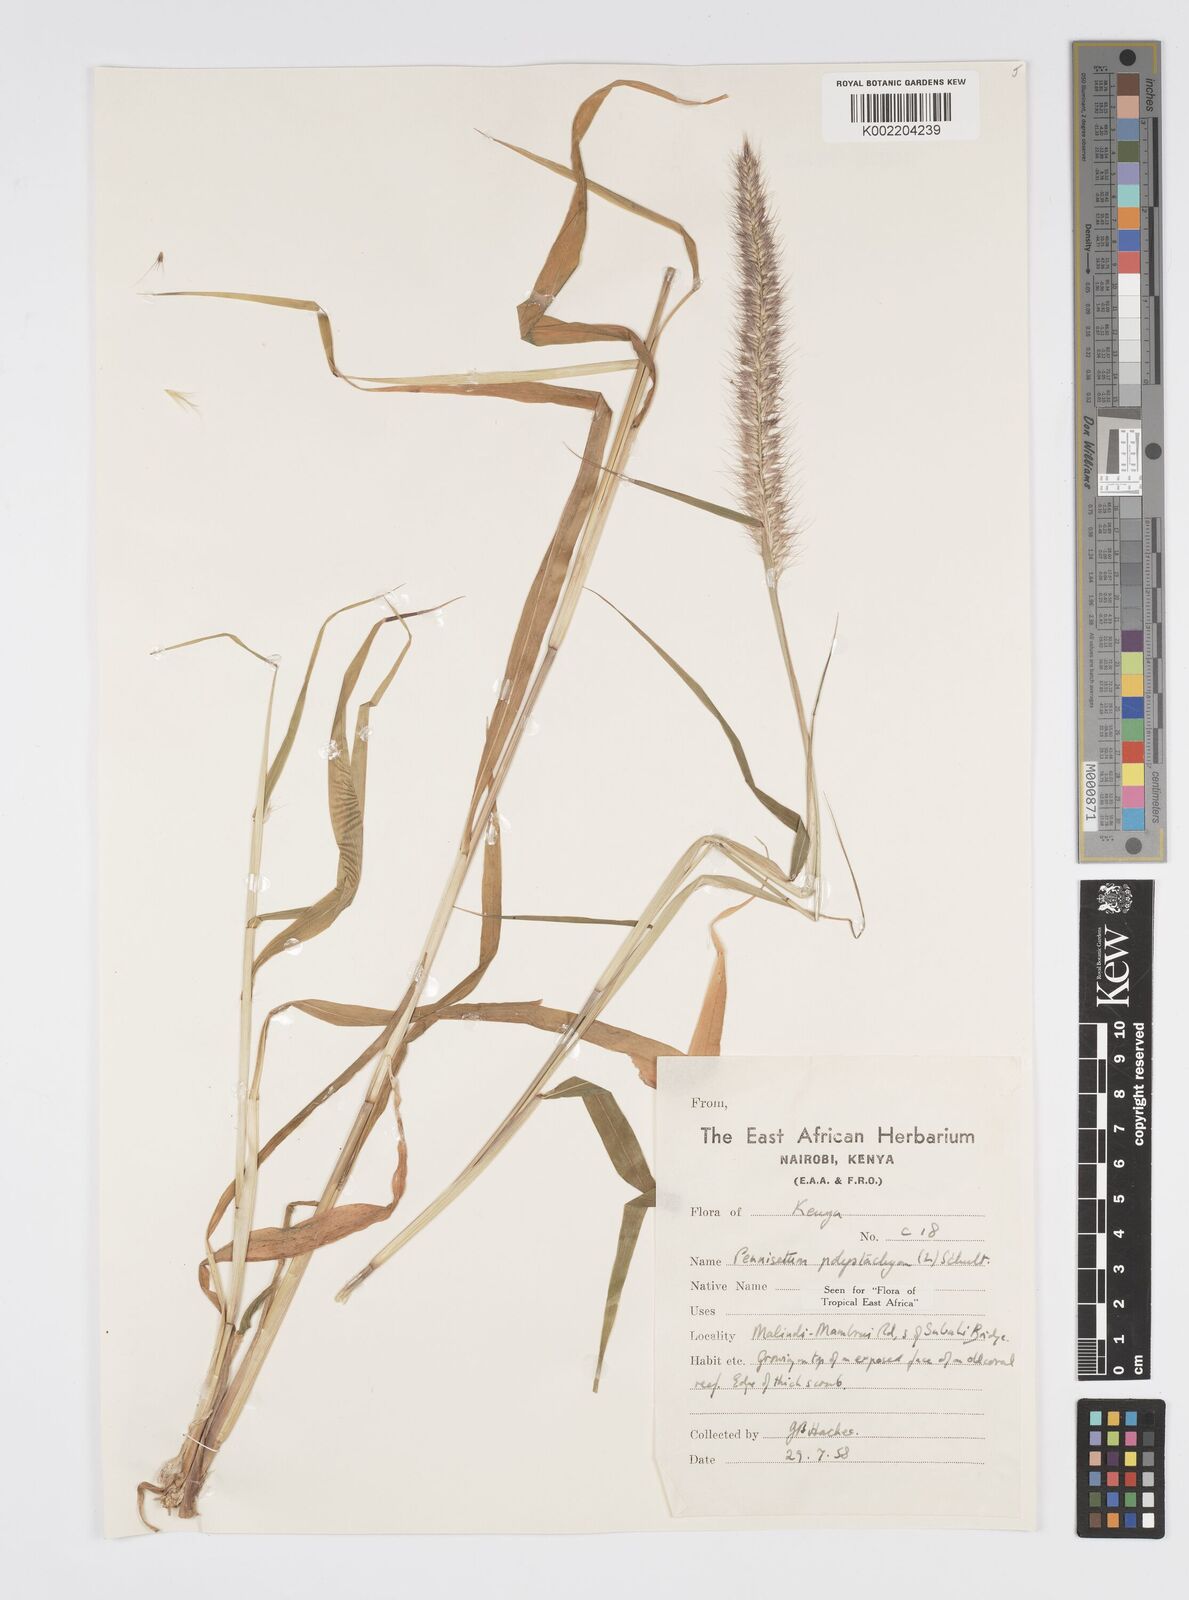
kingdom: Plantae
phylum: Tracheophyta
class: Liliopsida
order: Poales
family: Poaceae
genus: Setaria
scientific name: Setaria parviflora
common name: Knotroot bristle-grass
